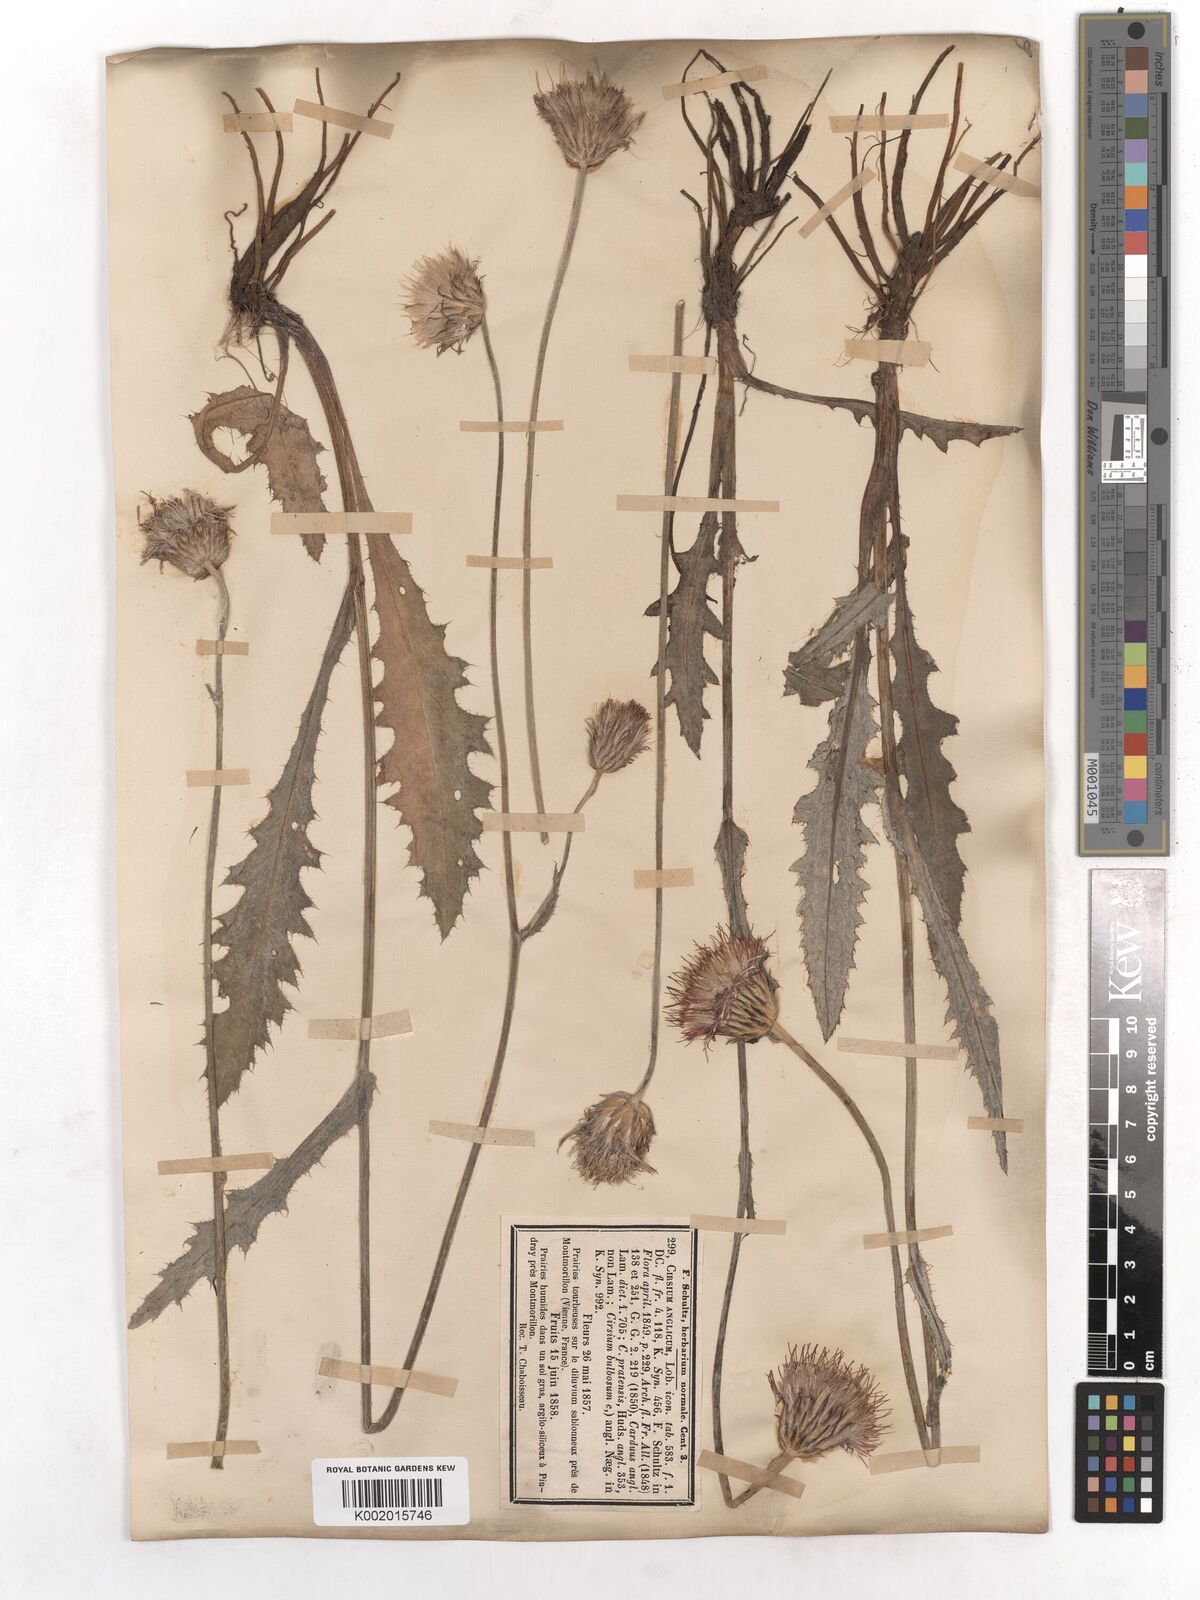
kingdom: Plantae
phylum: Tracheophyta
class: Magnoliopsida
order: Asterales
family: Asteraceae
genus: Cirsium
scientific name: Cirsium dissectum
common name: Meadow thistle
